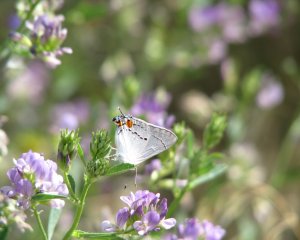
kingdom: Animalia
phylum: Arthropoda
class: Insecta
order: Lepidoptera
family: Lycaenidae
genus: Strymon
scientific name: Strymon melinus
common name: Gray Hairstreak
